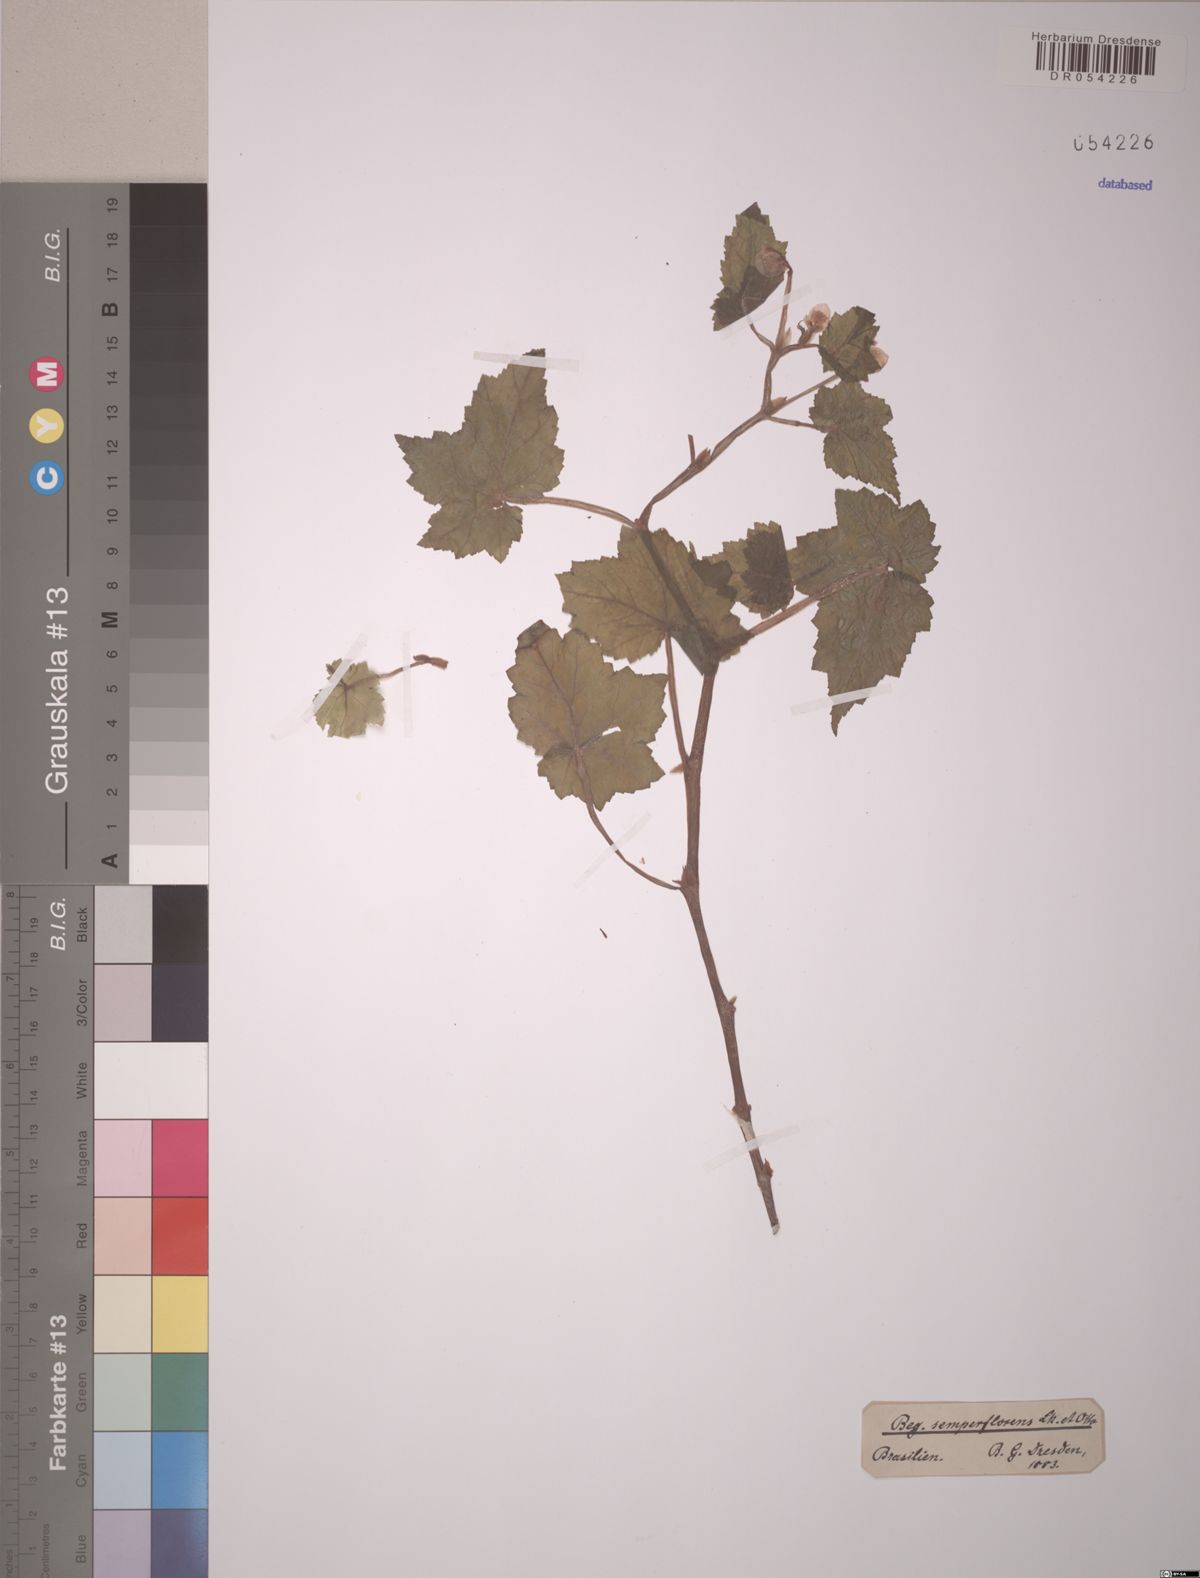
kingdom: Plantae
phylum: Tracheophyta
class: Magnoliopsida
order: Cucurbitales
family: Begoniaceae
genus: Begonia
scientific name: Begonia semperflorens
